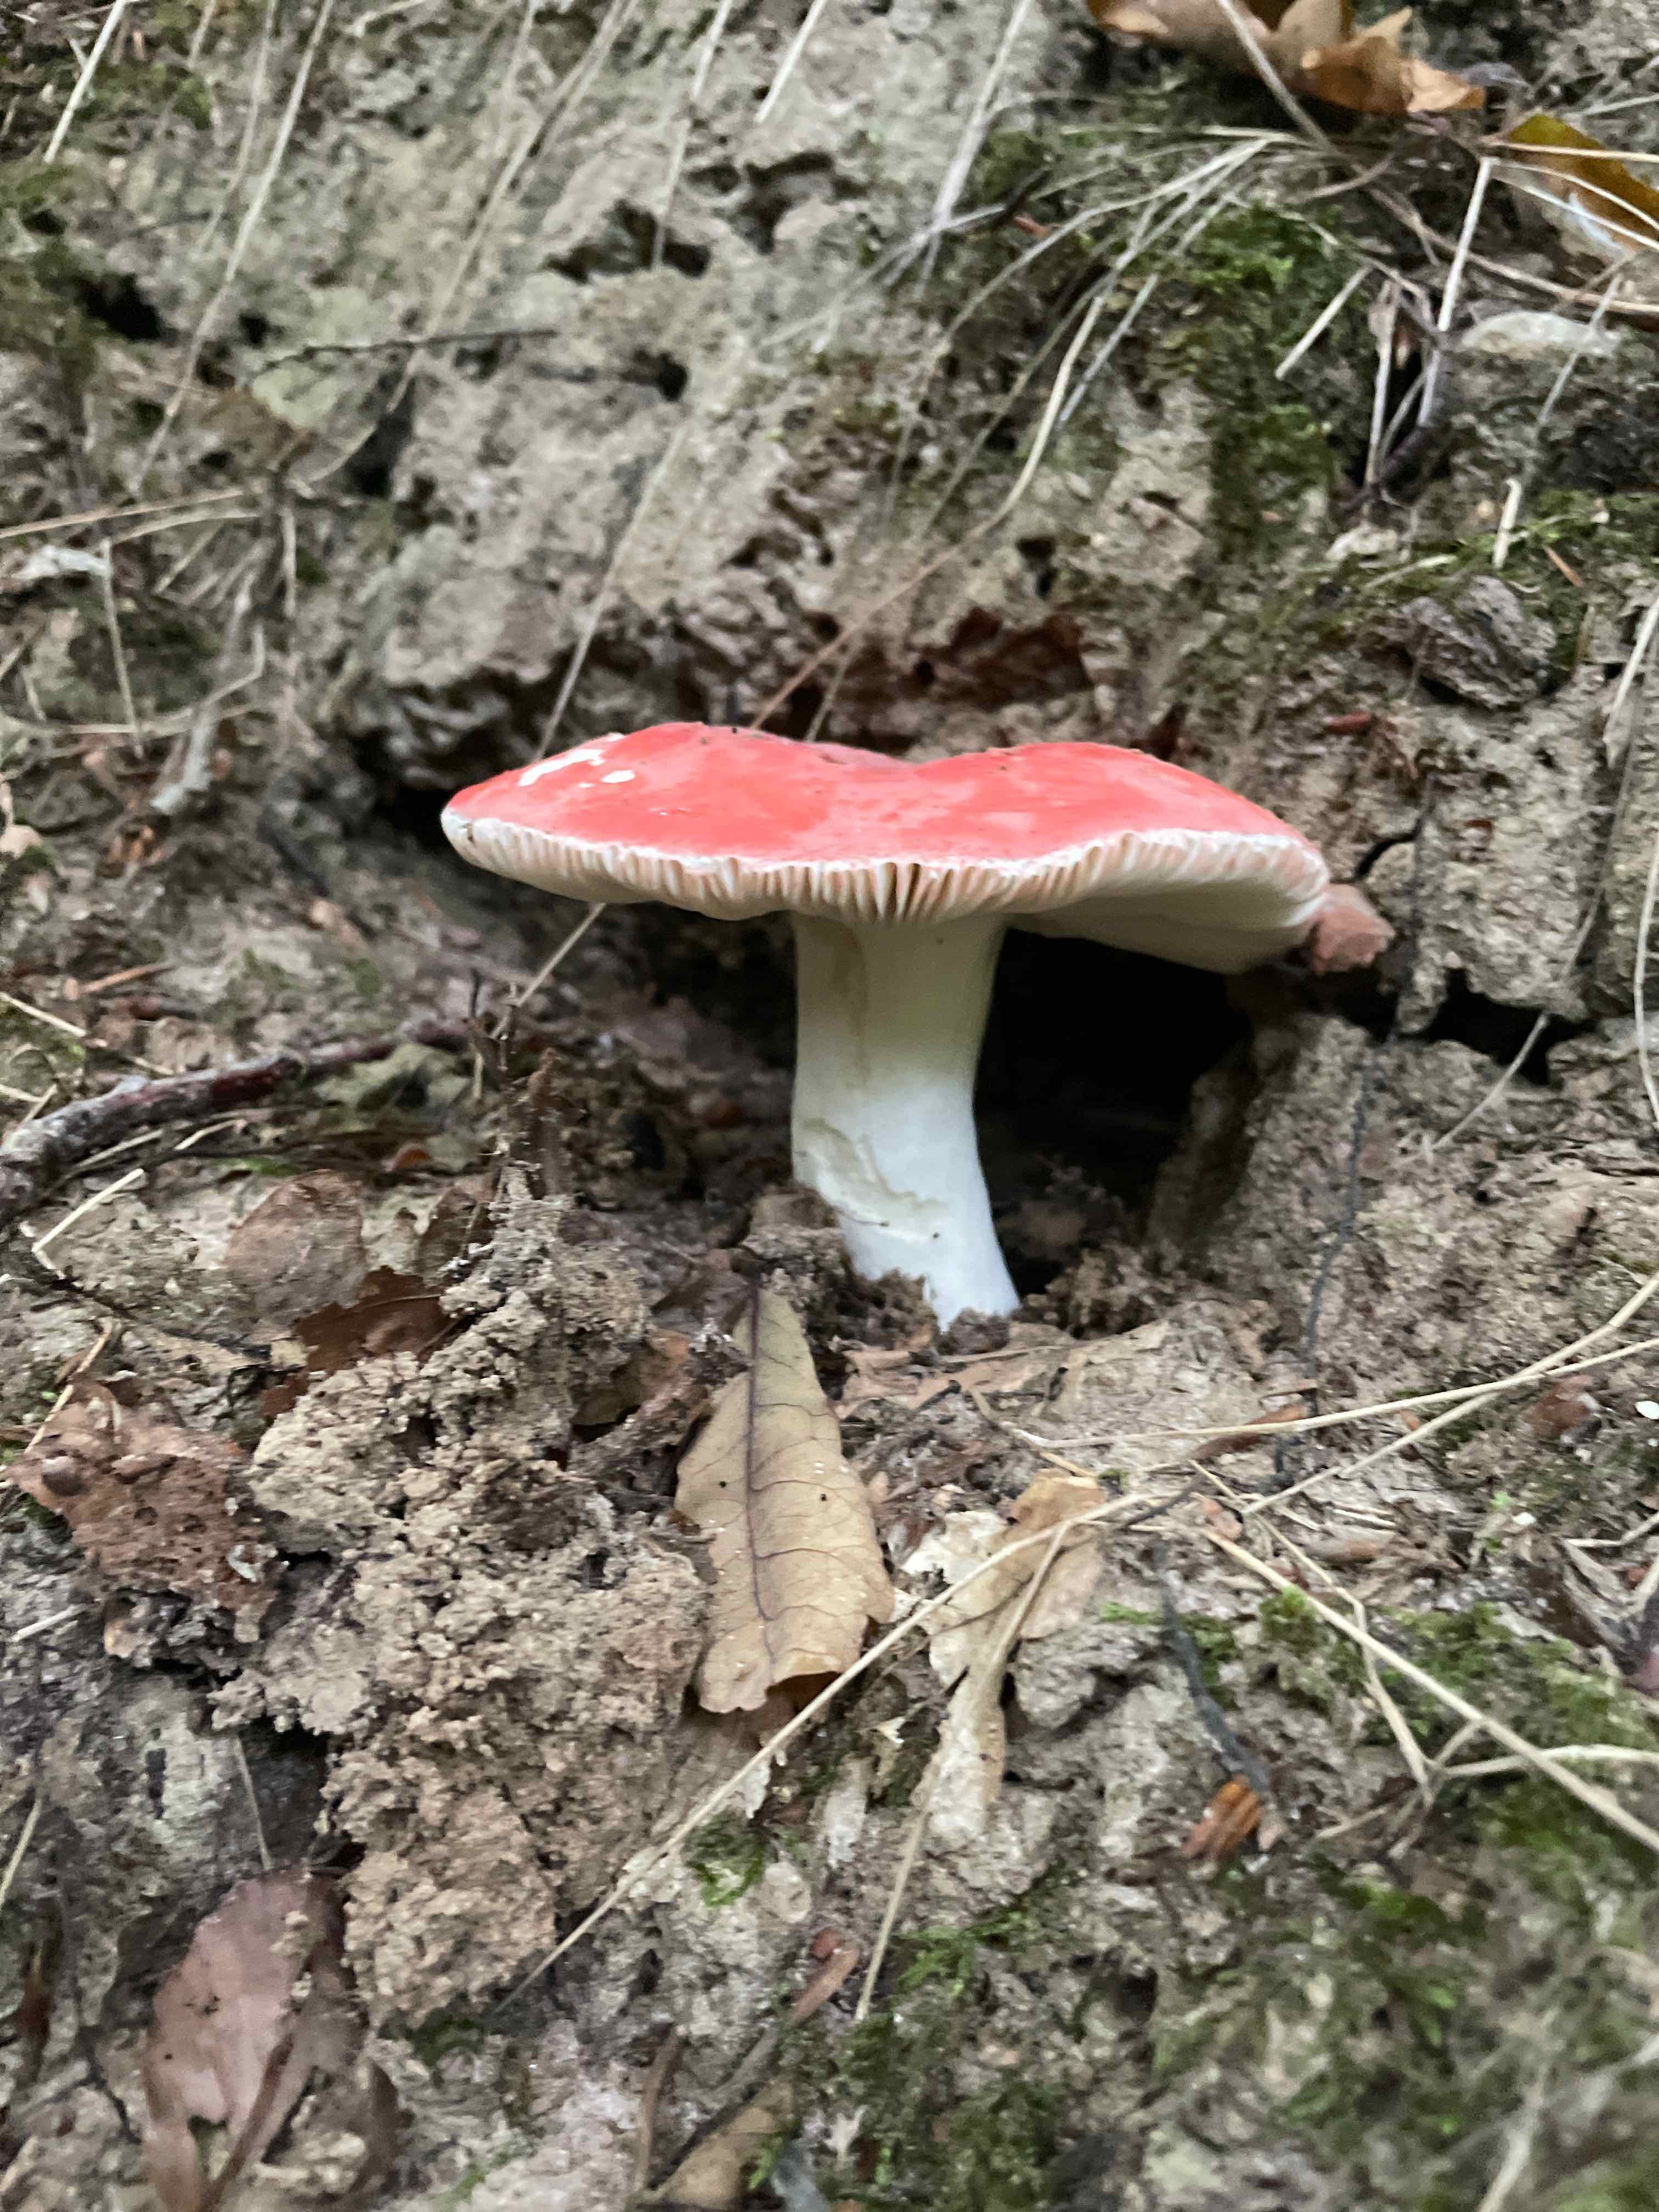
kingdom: Fungi
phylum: Basidiomycota
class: Agaricomycetes
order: Russulales
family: Russulaceae
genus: Russula
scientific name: Russula
